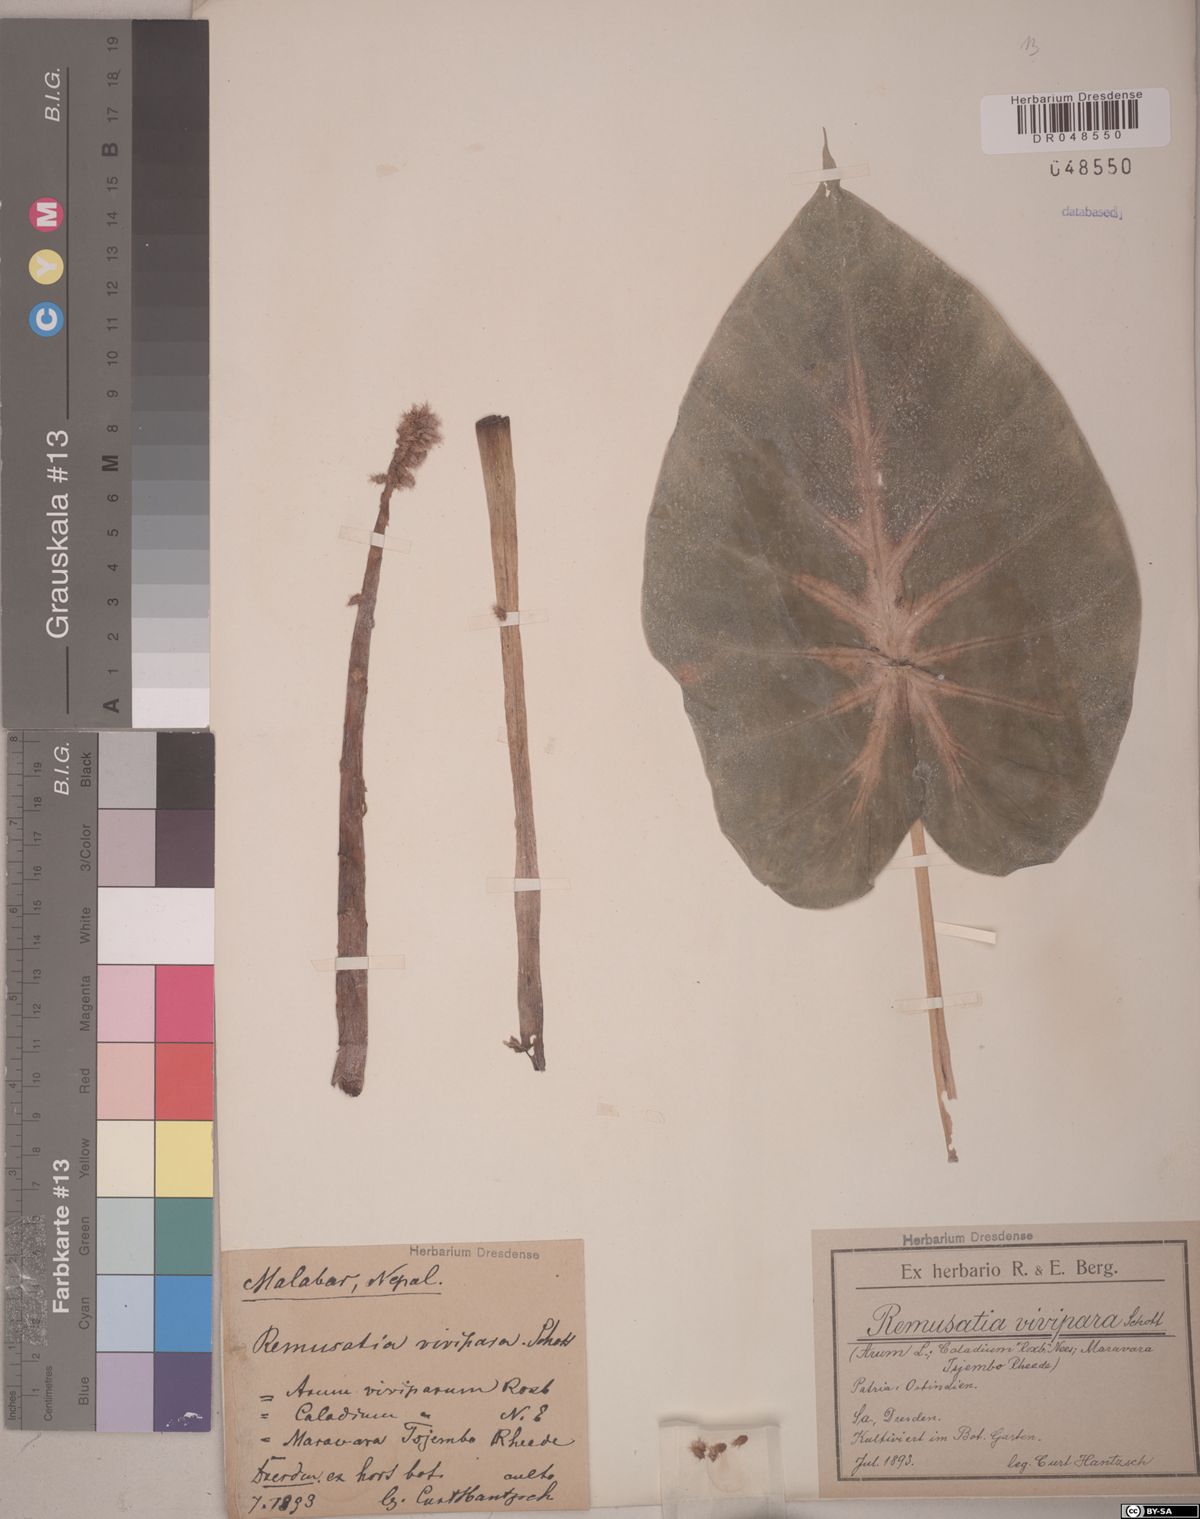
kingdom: Plantae
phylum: Tracheophyta
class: Liliopsida
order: Alismatales
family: Araceae
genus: Remusatia
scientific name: Remusatia vivipara
